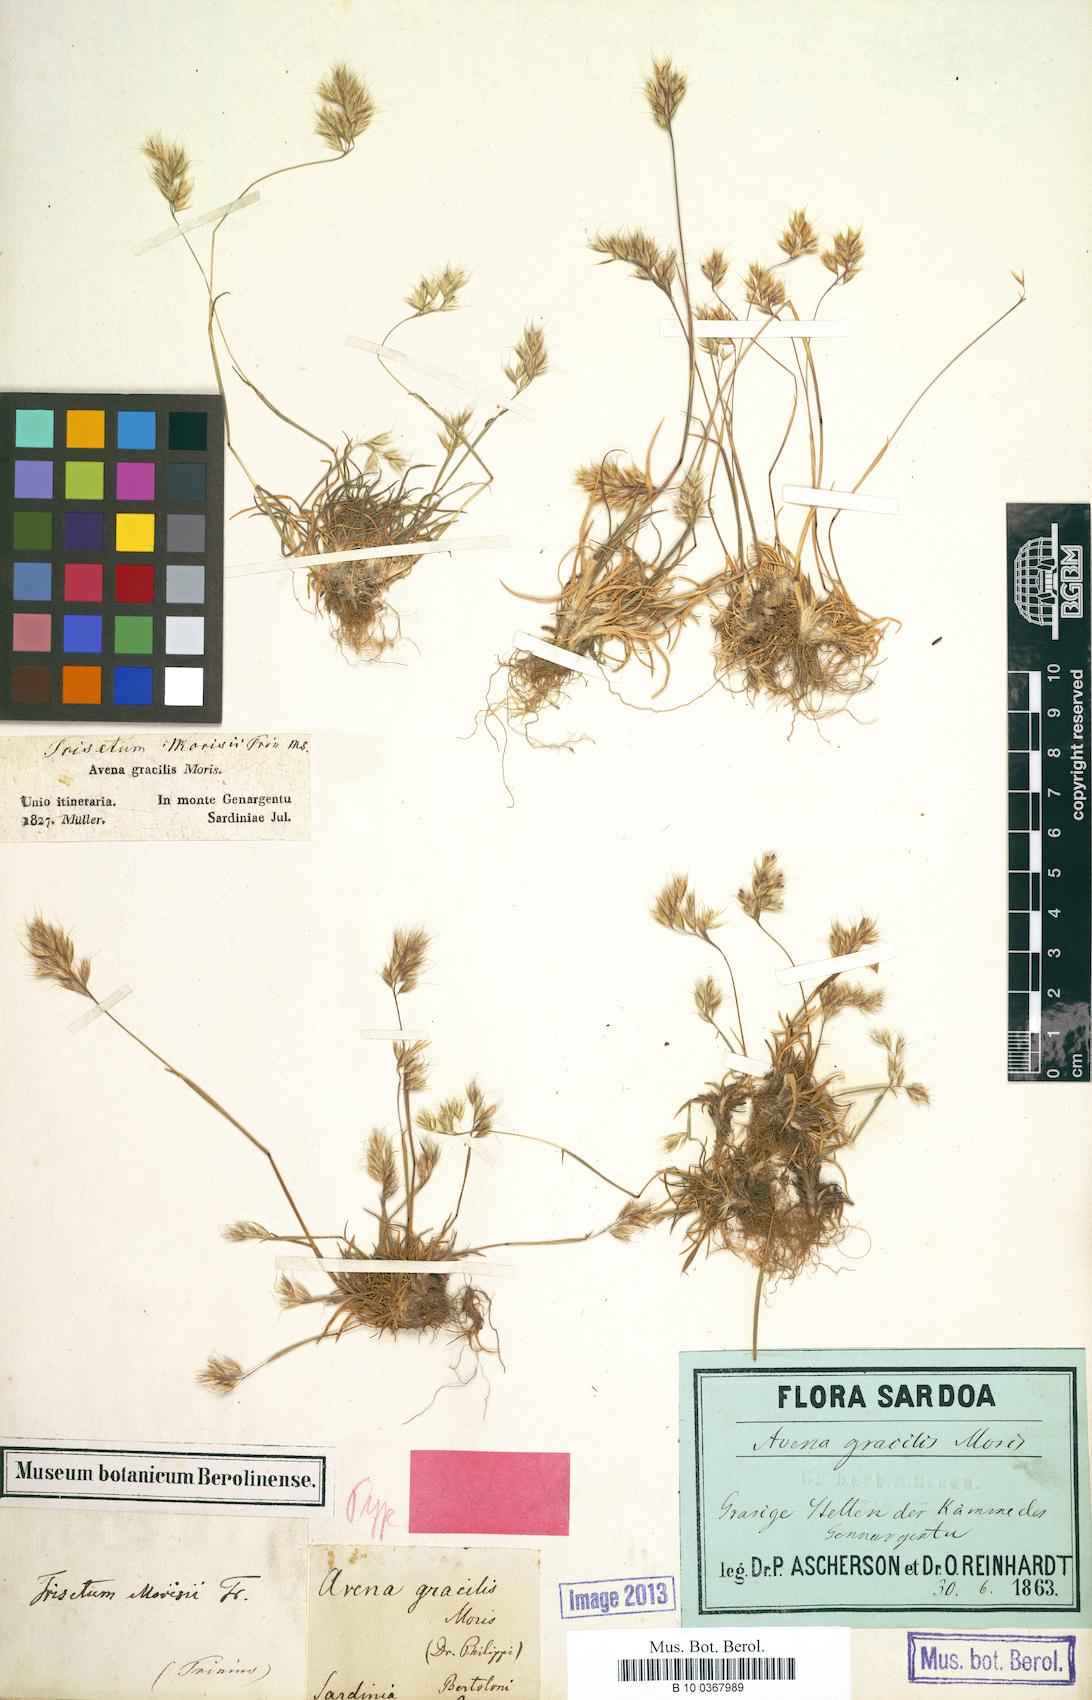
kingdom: Plantae
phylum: Tracheophyta
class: Liliopsida
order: Poales
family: Poaceae
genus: Trisetum
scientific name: Trisetum gracile
